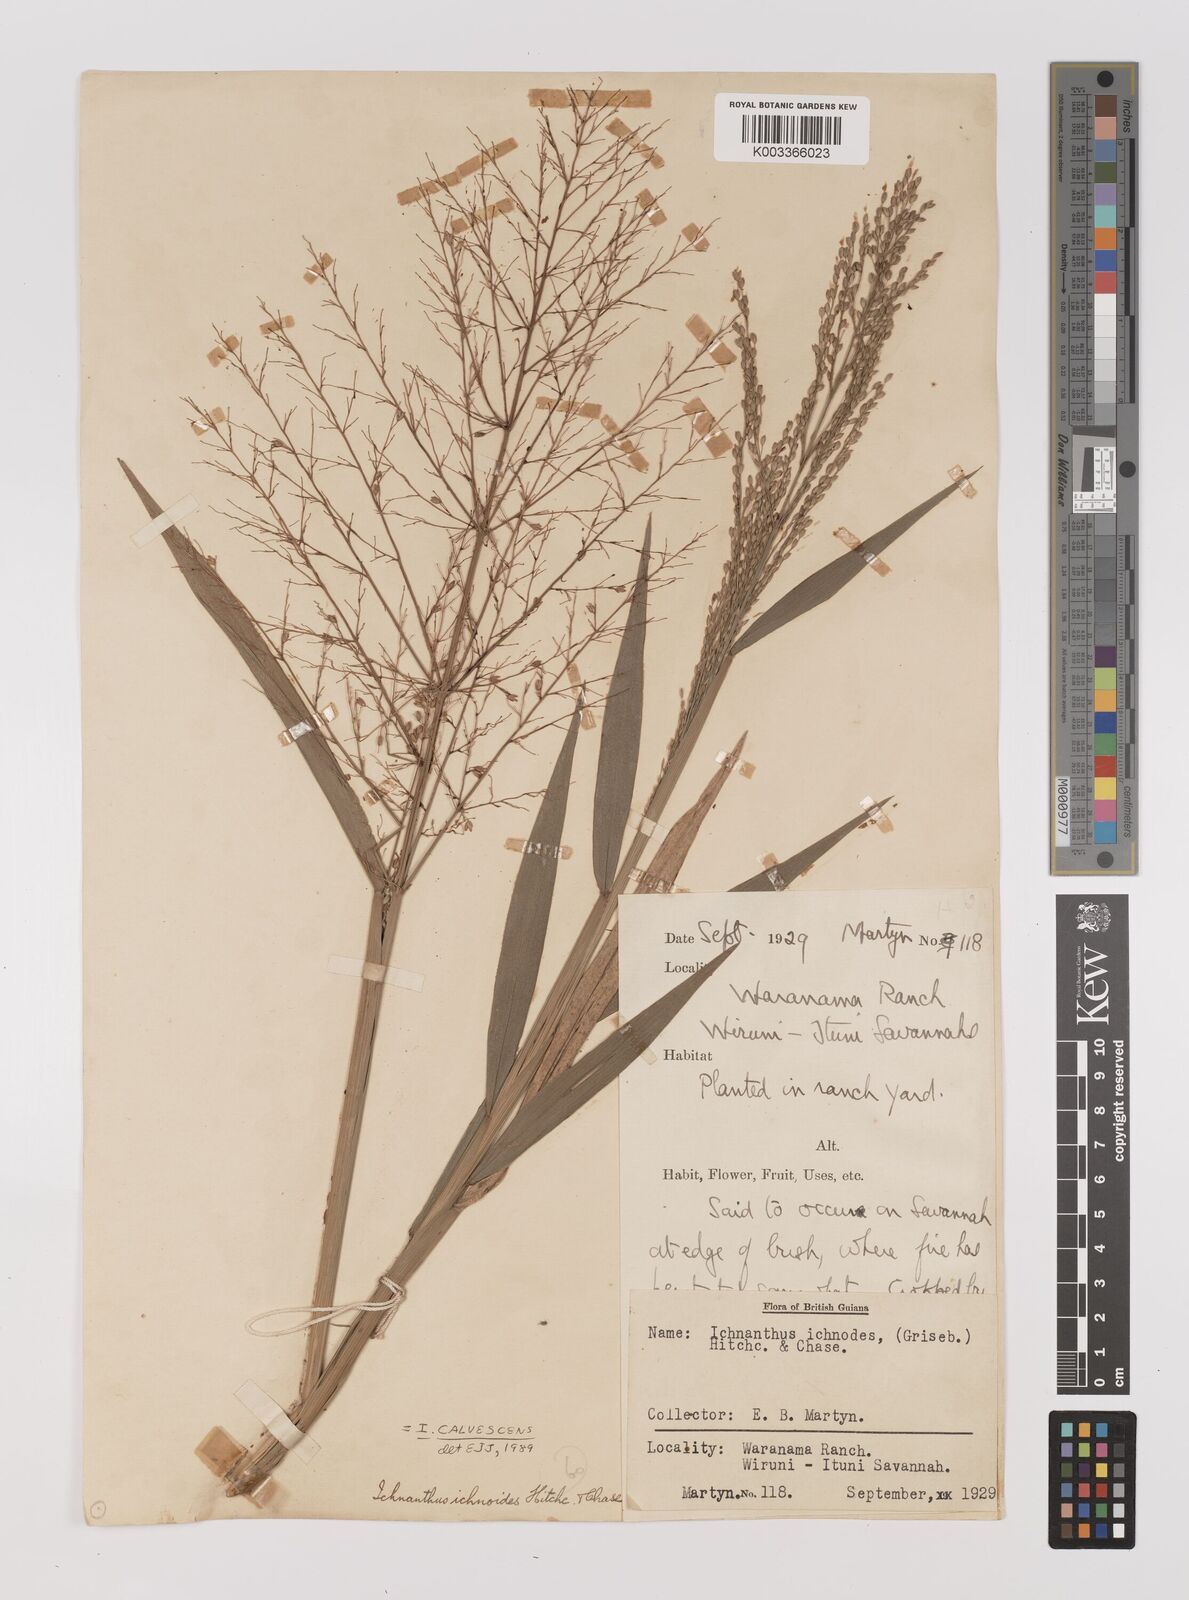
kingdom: Plantae
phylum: Tracheophyta
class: Liliopsida
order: Poales
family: Poaceae
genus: Ichnanthus
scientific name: Ichnanthus calvescens
